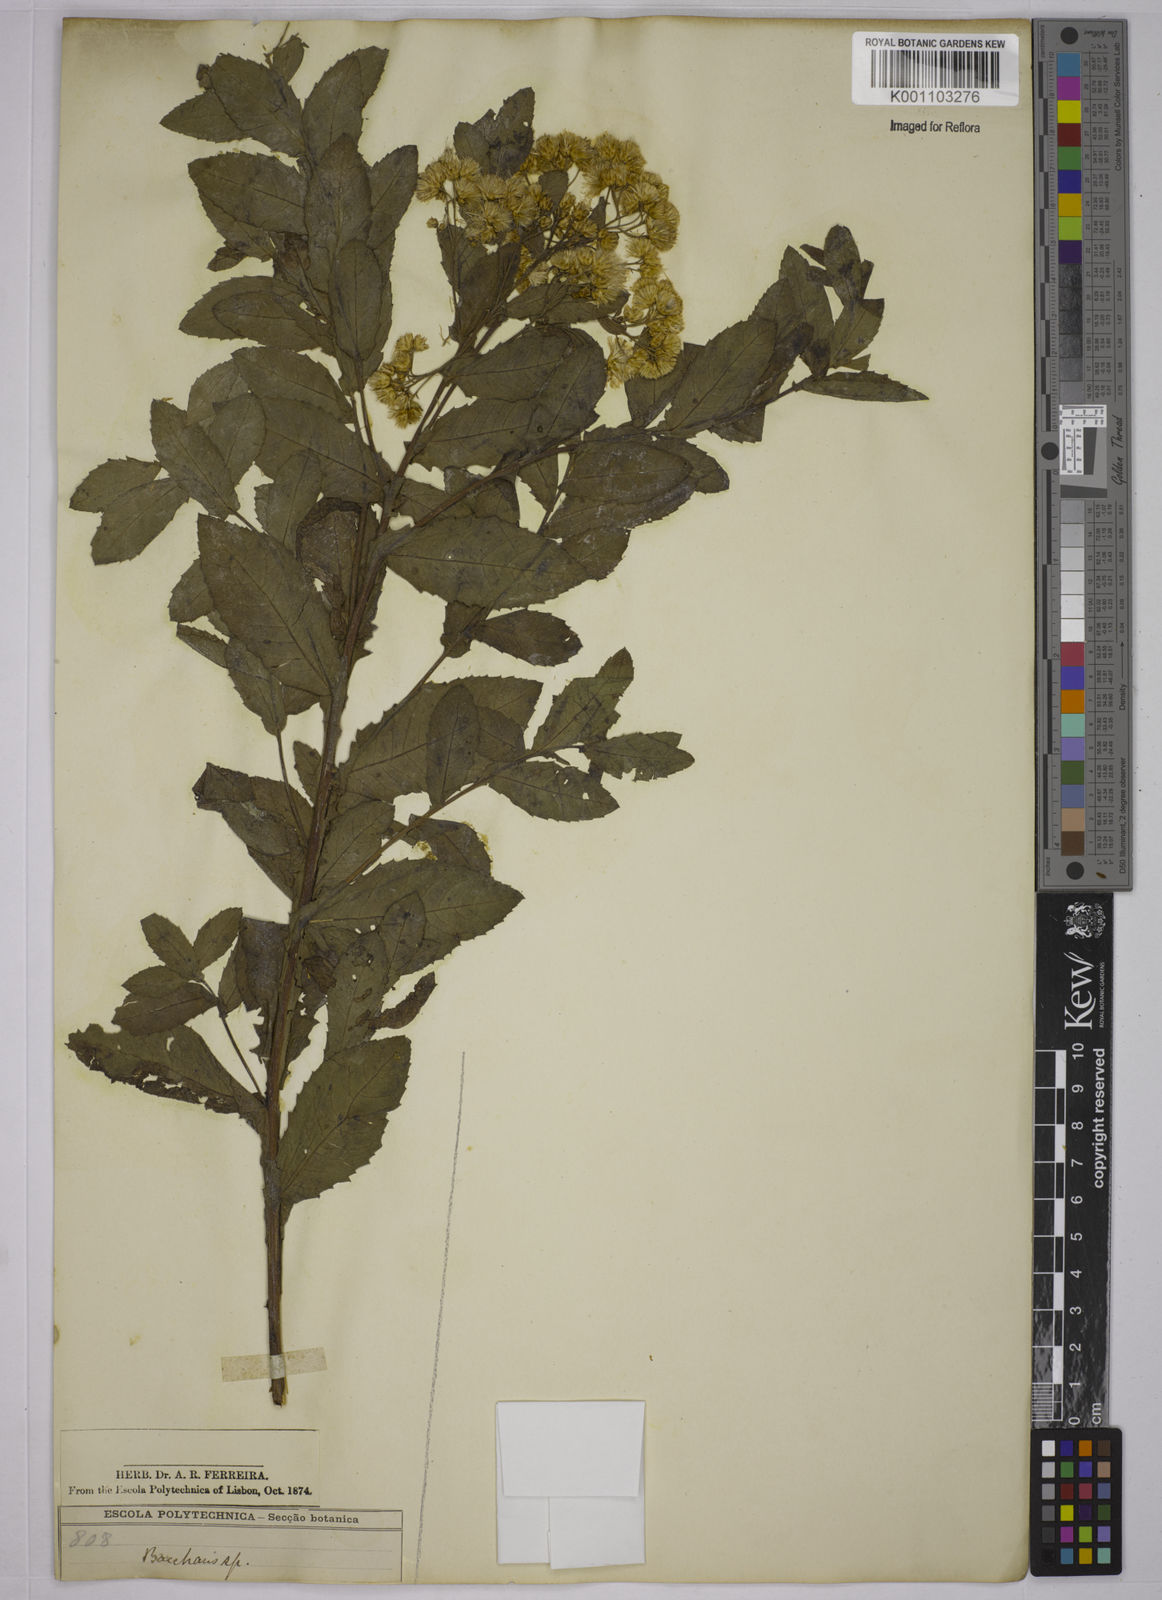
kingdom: Plantae
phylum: Tracheophyta
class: Magnoliopsida
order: Asterales
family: Asteraceae
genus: Baccharis
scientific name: Baccharis
